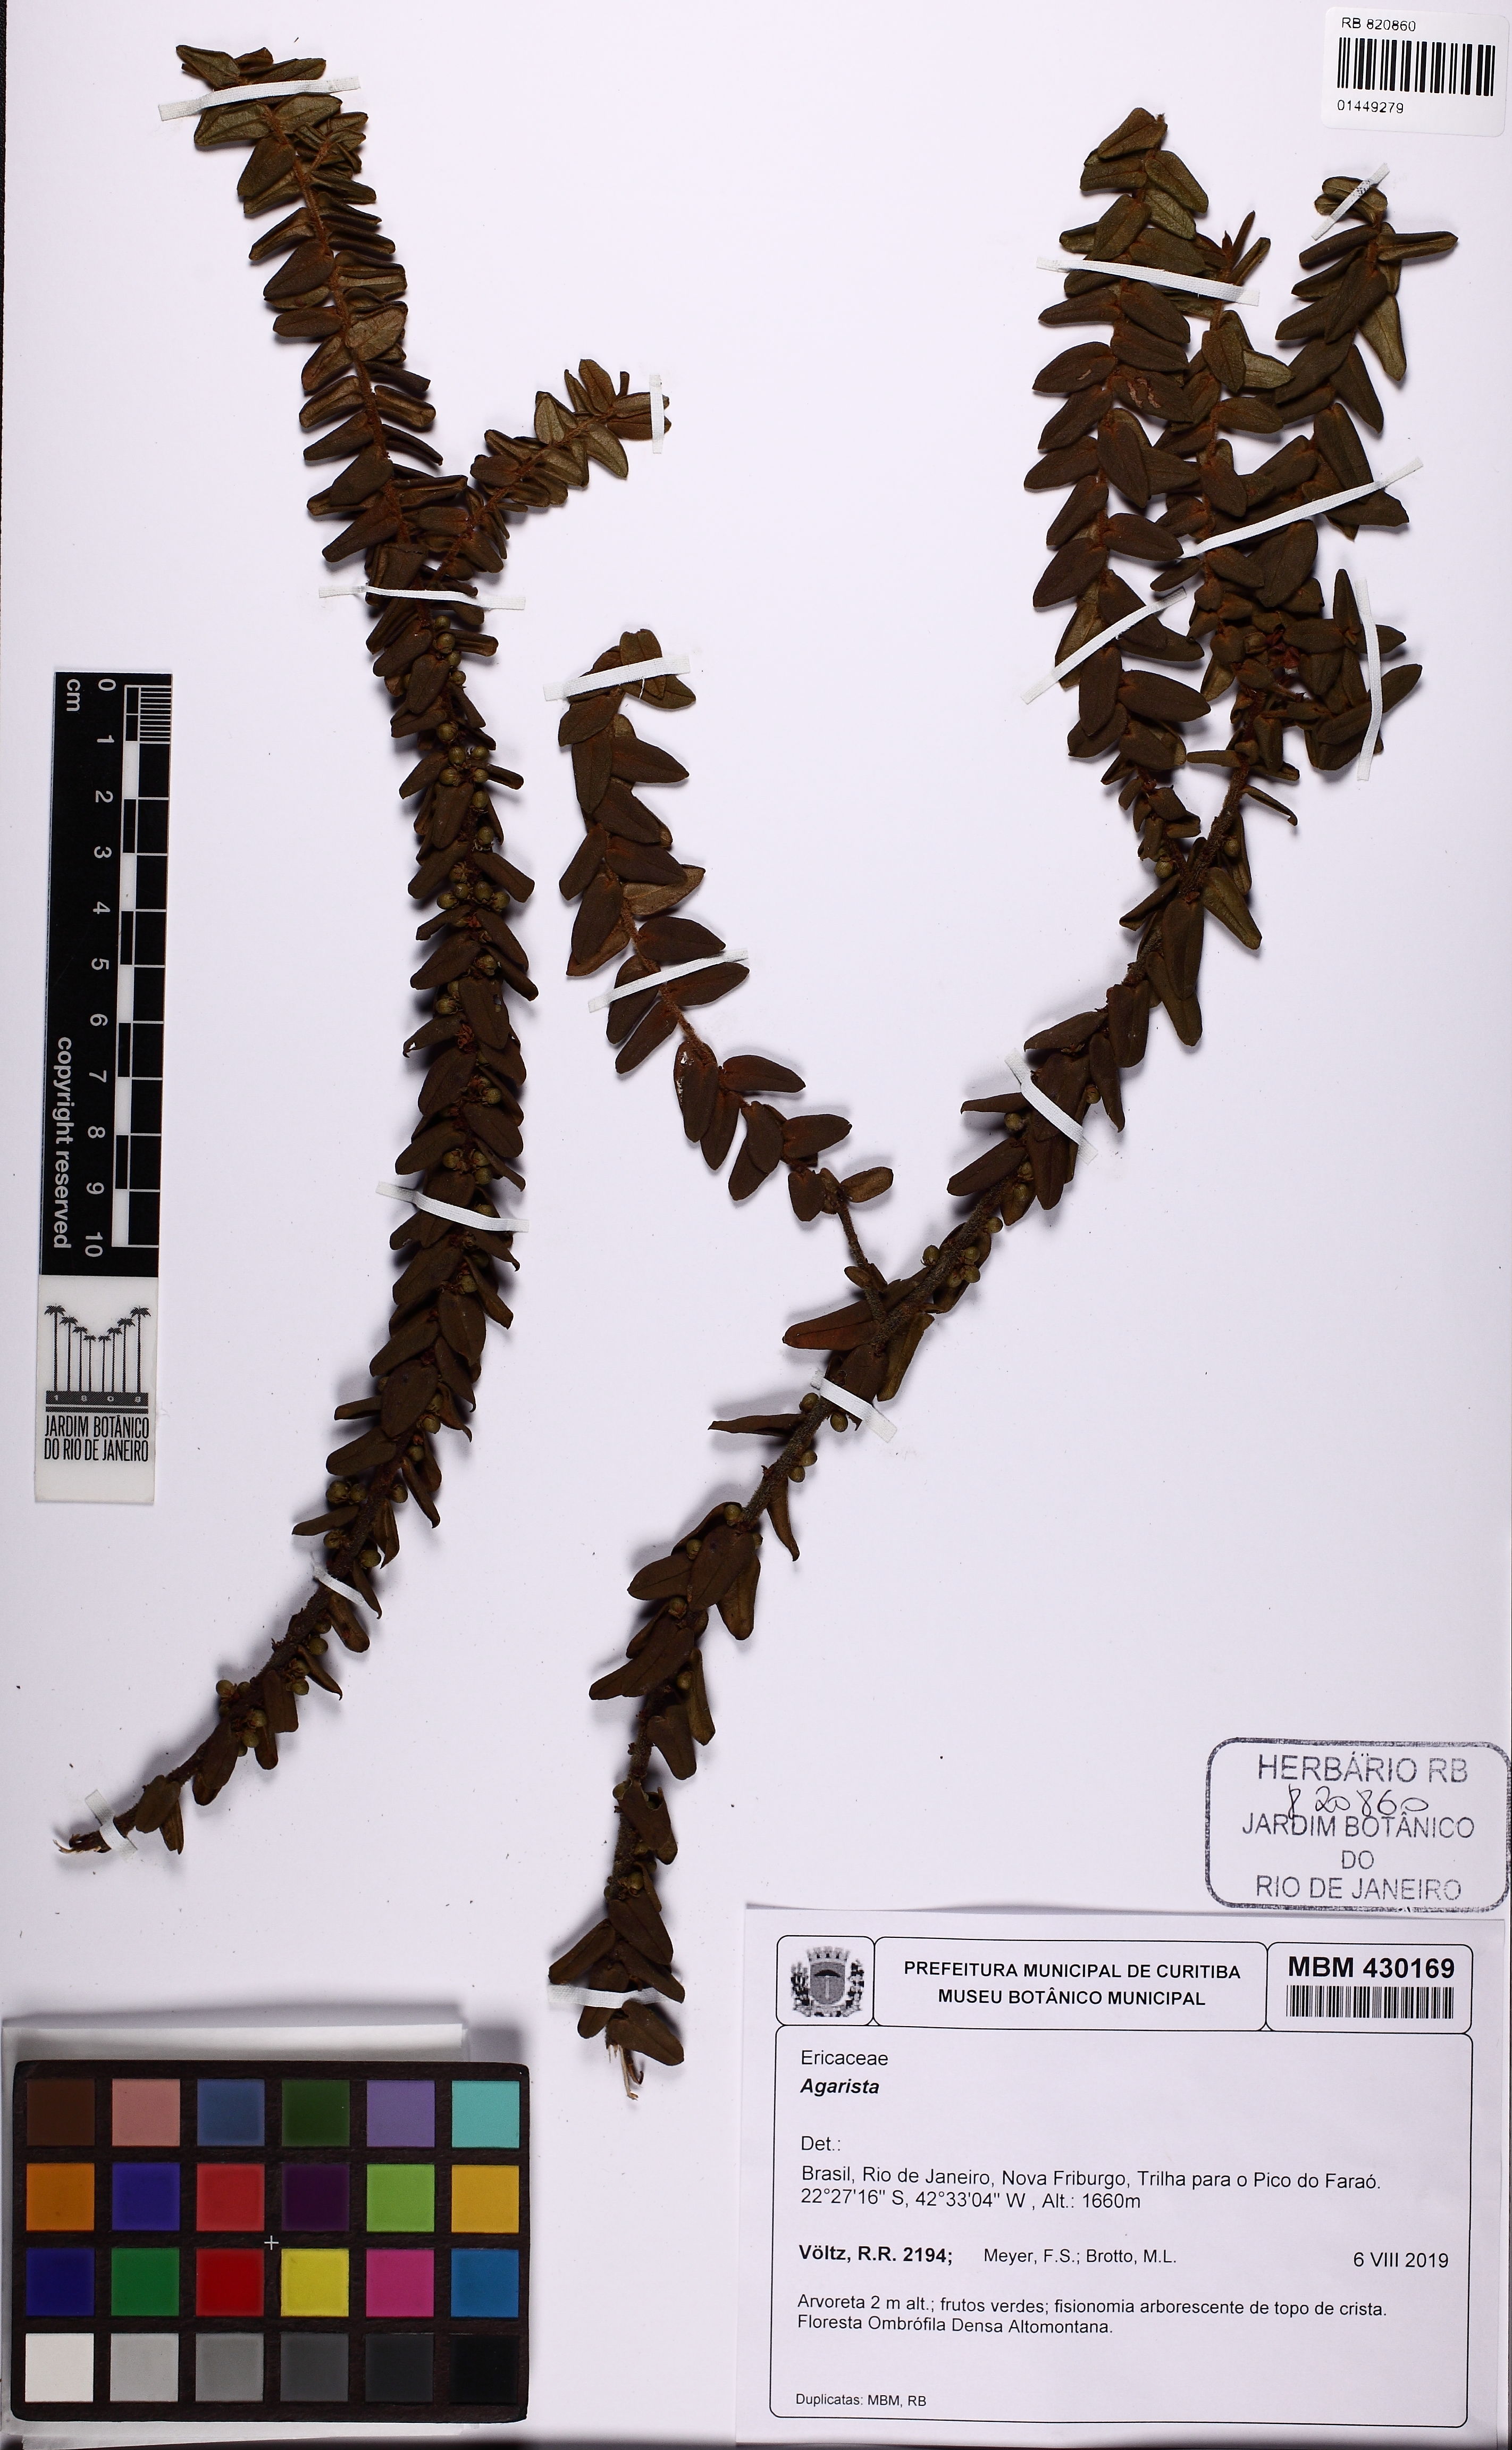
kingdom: Plantae
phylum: Tracheophyta
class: Magnoliopsida
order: Ericales
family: Ericaceae
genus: Agarista
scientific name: Agarista
